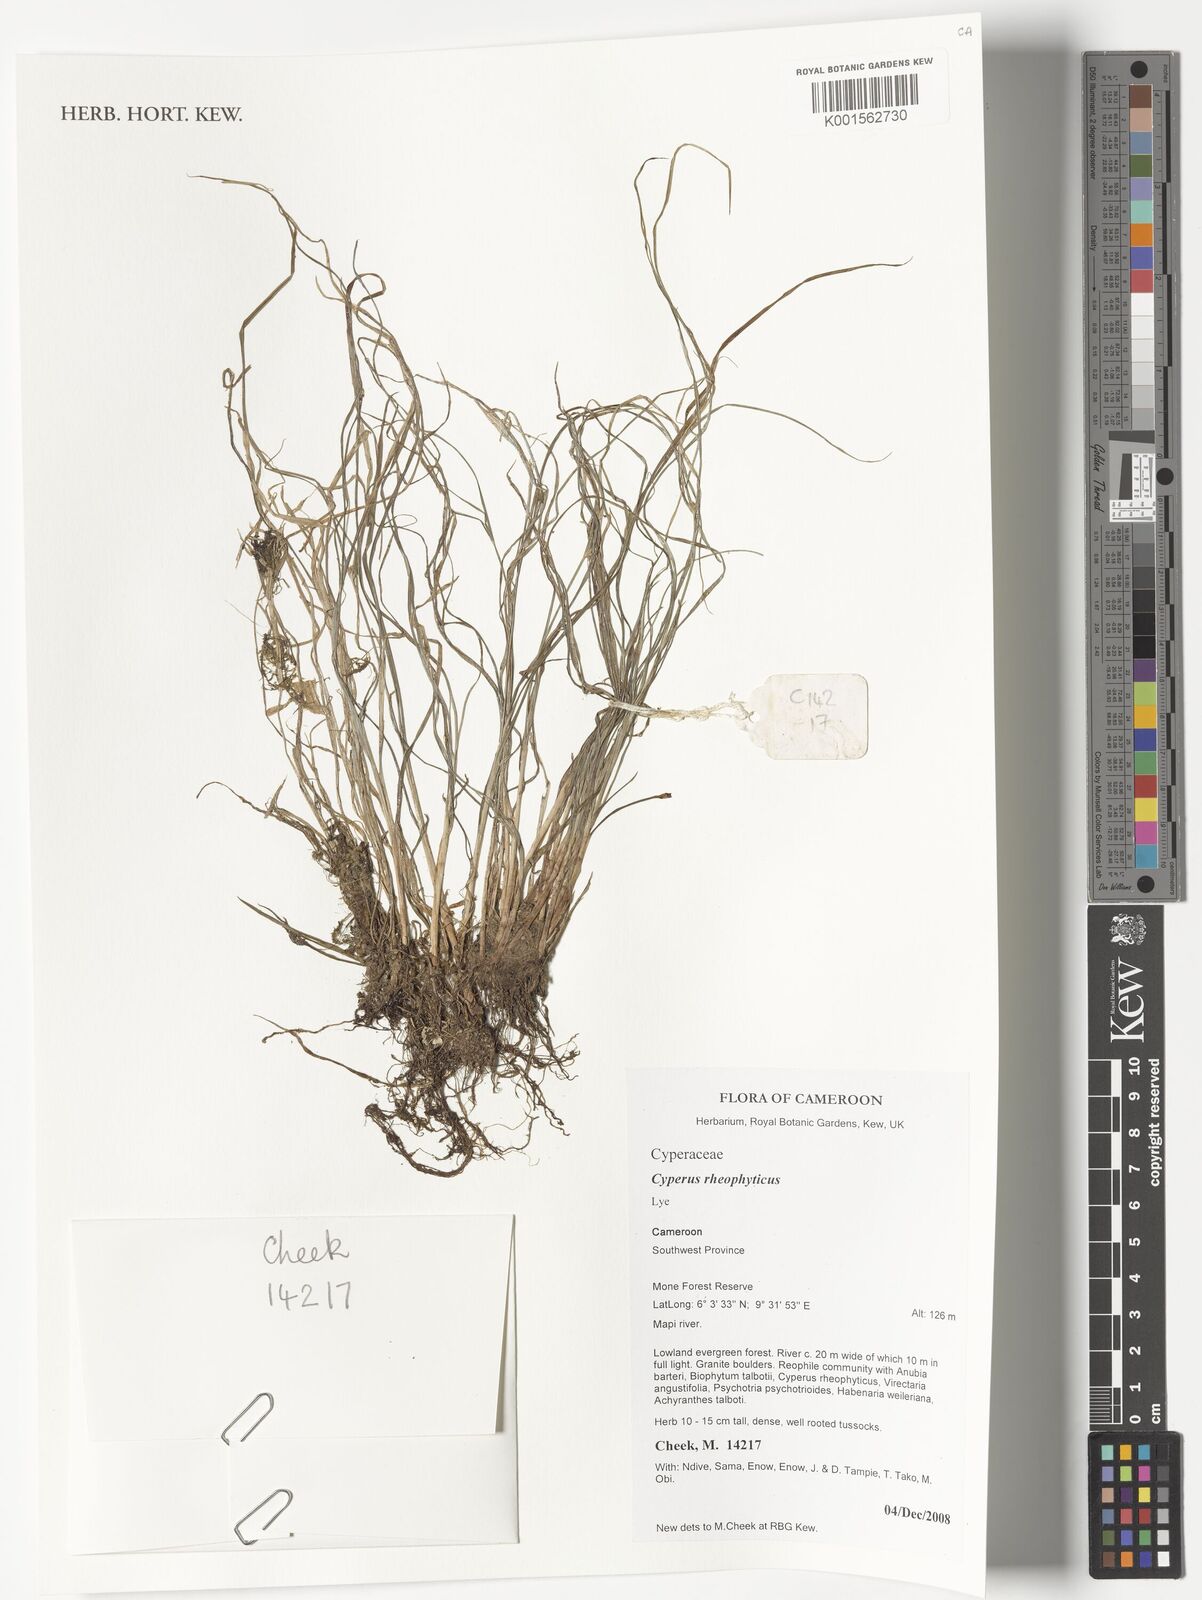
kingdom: Plantae
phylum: Tracheophyta
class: Liliopsida
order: Poales
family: Cyperaceae
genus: Cyperus
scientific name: Cyperus rheophyticus
